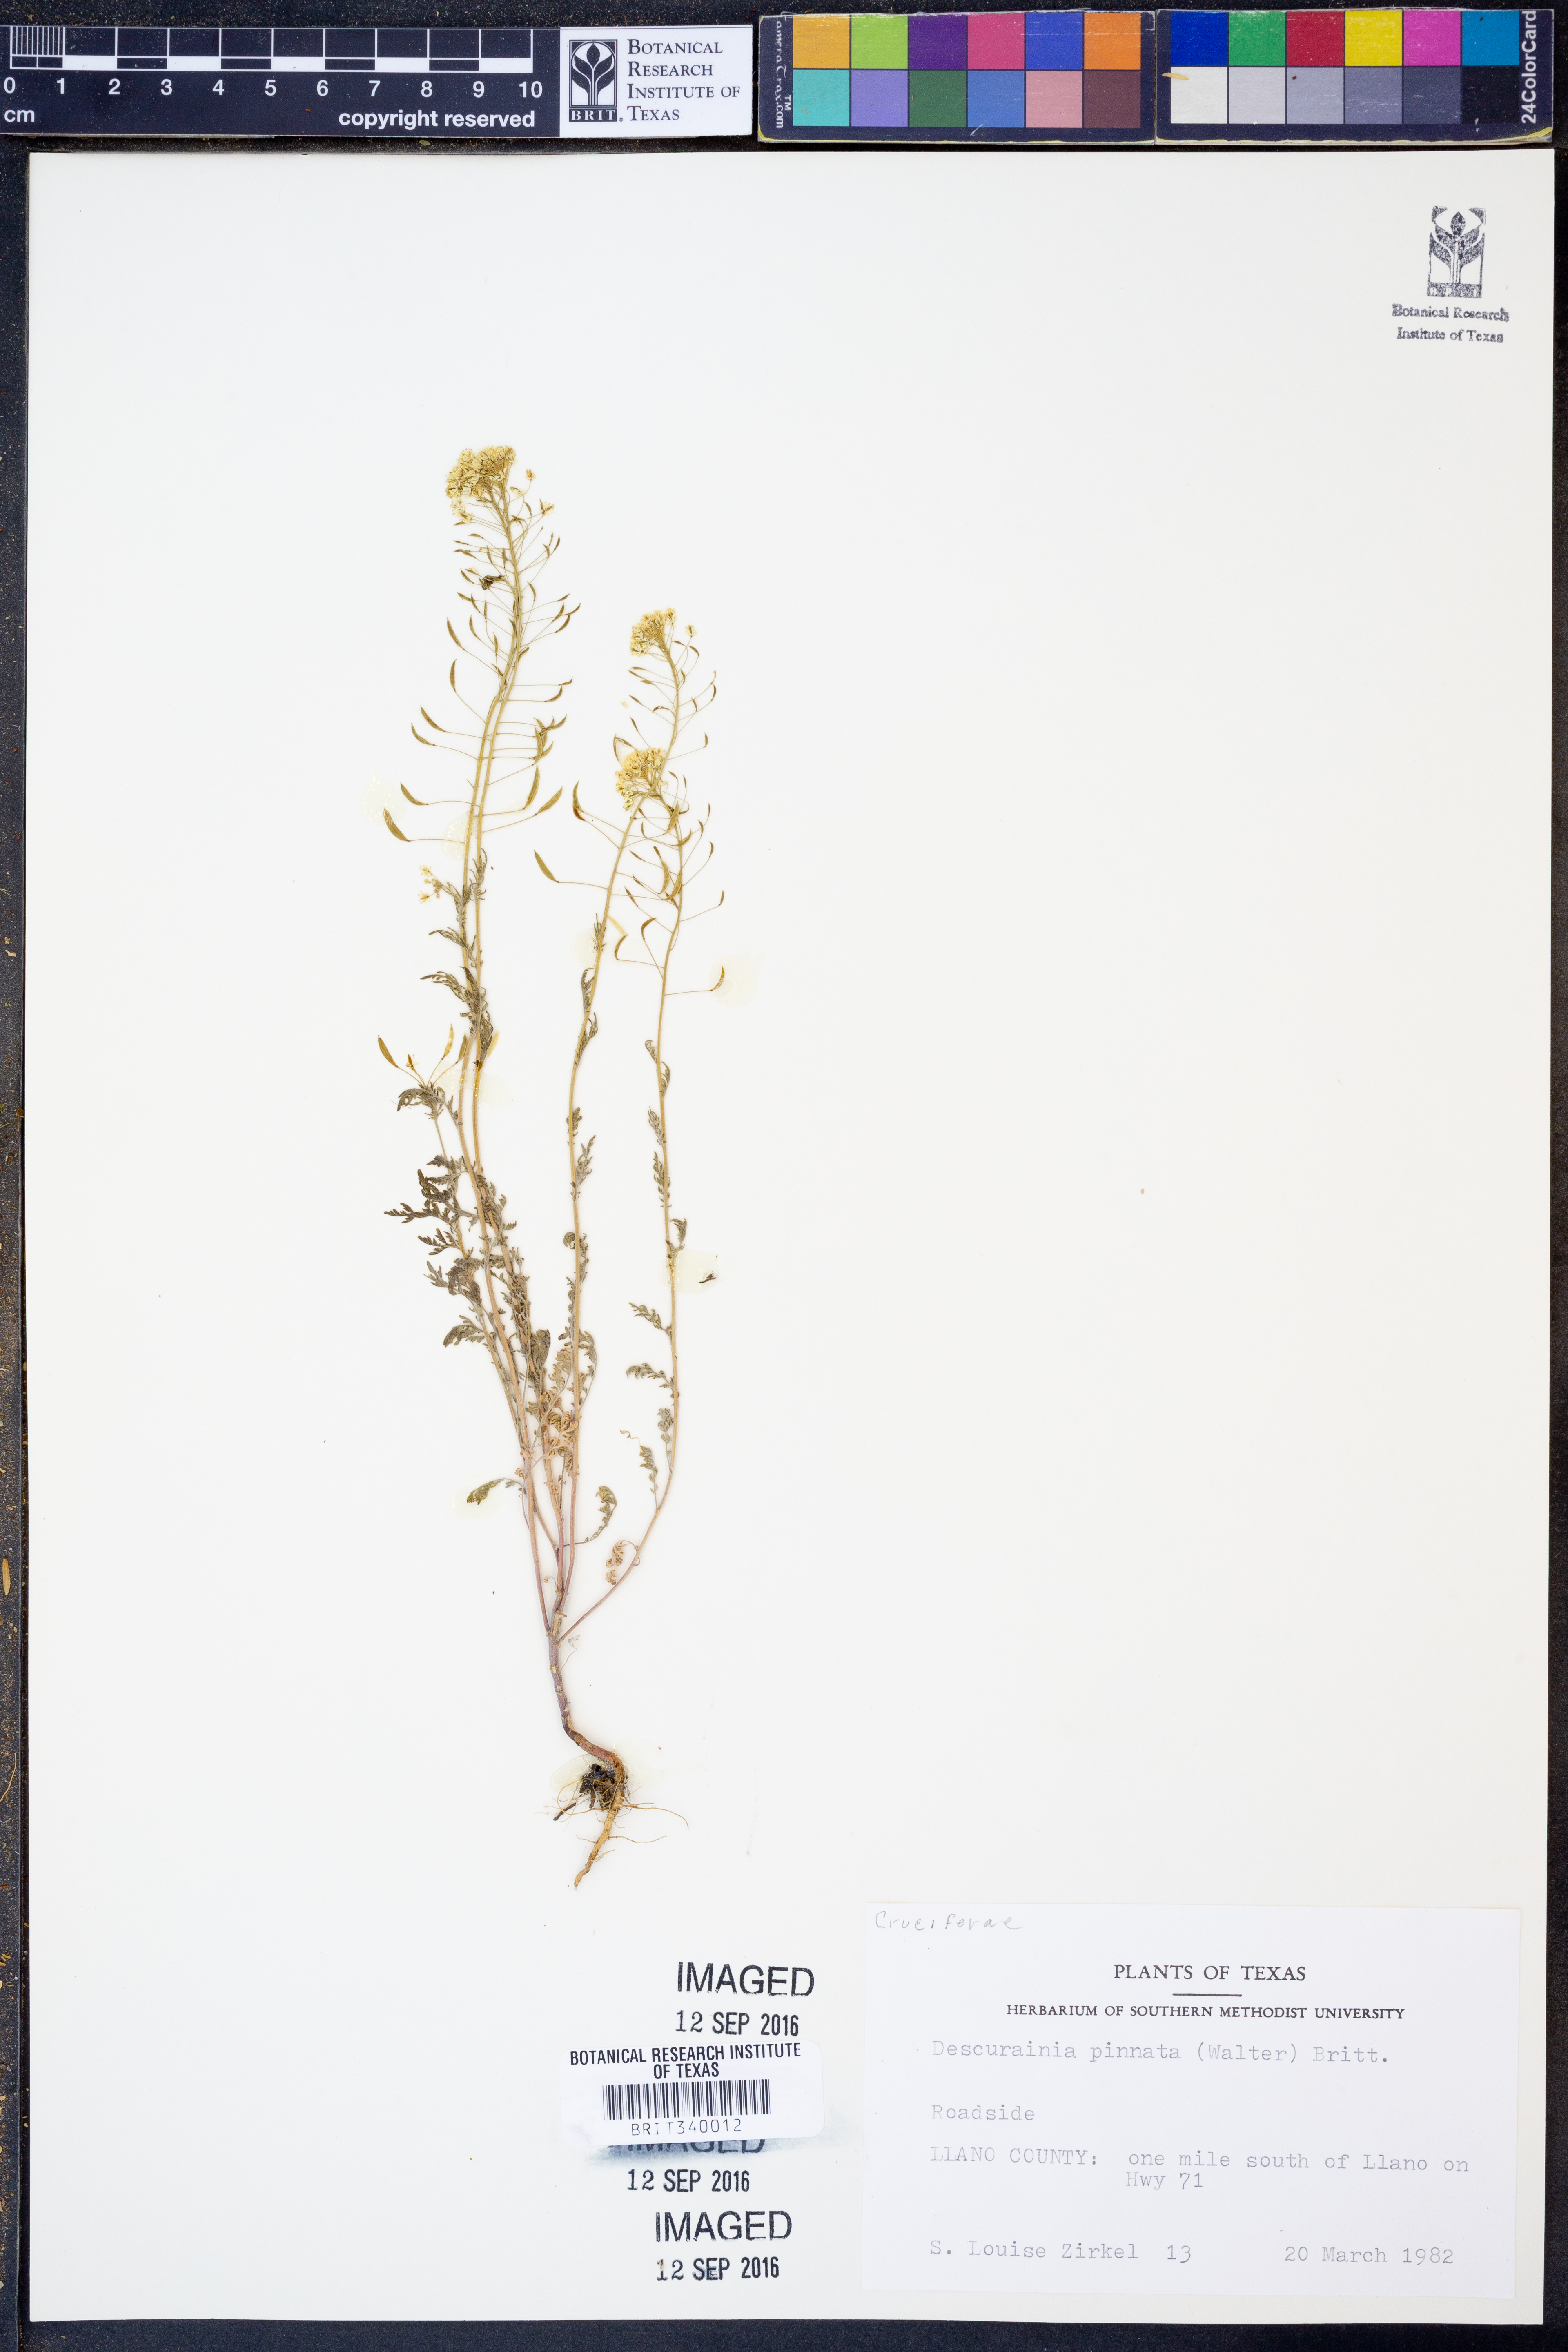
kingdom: Plantae
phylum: Tracheophyta
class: Magnoliopsida
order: Brassicales
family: Brassicaceae
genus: Descurainia
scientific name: Descurainia pinnata
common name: Western tansy mustard
